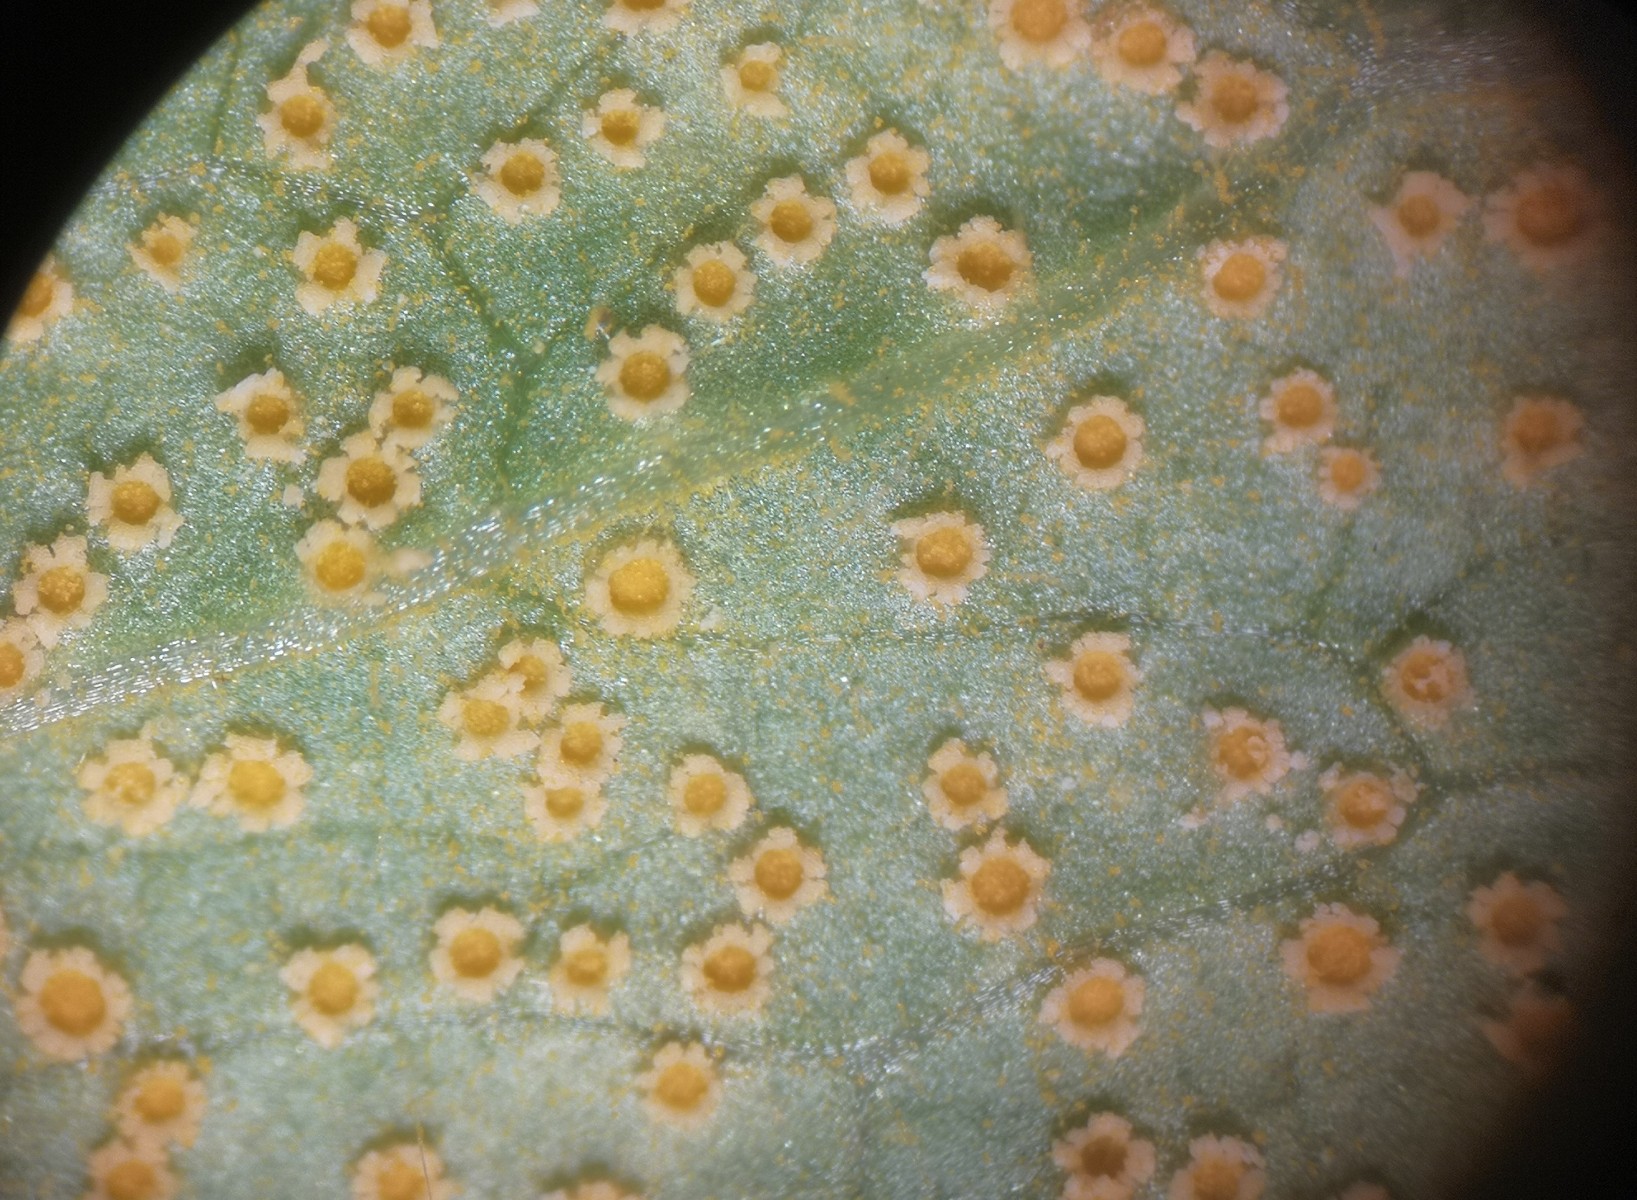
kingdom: Fungi
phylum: Basidiomycota
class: Pucciniomycetes
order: Pucciniales
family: Pucciniaceae
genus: Puccinia
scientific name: Puccinia pulverulenta
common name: dueurt-tvecellerust
